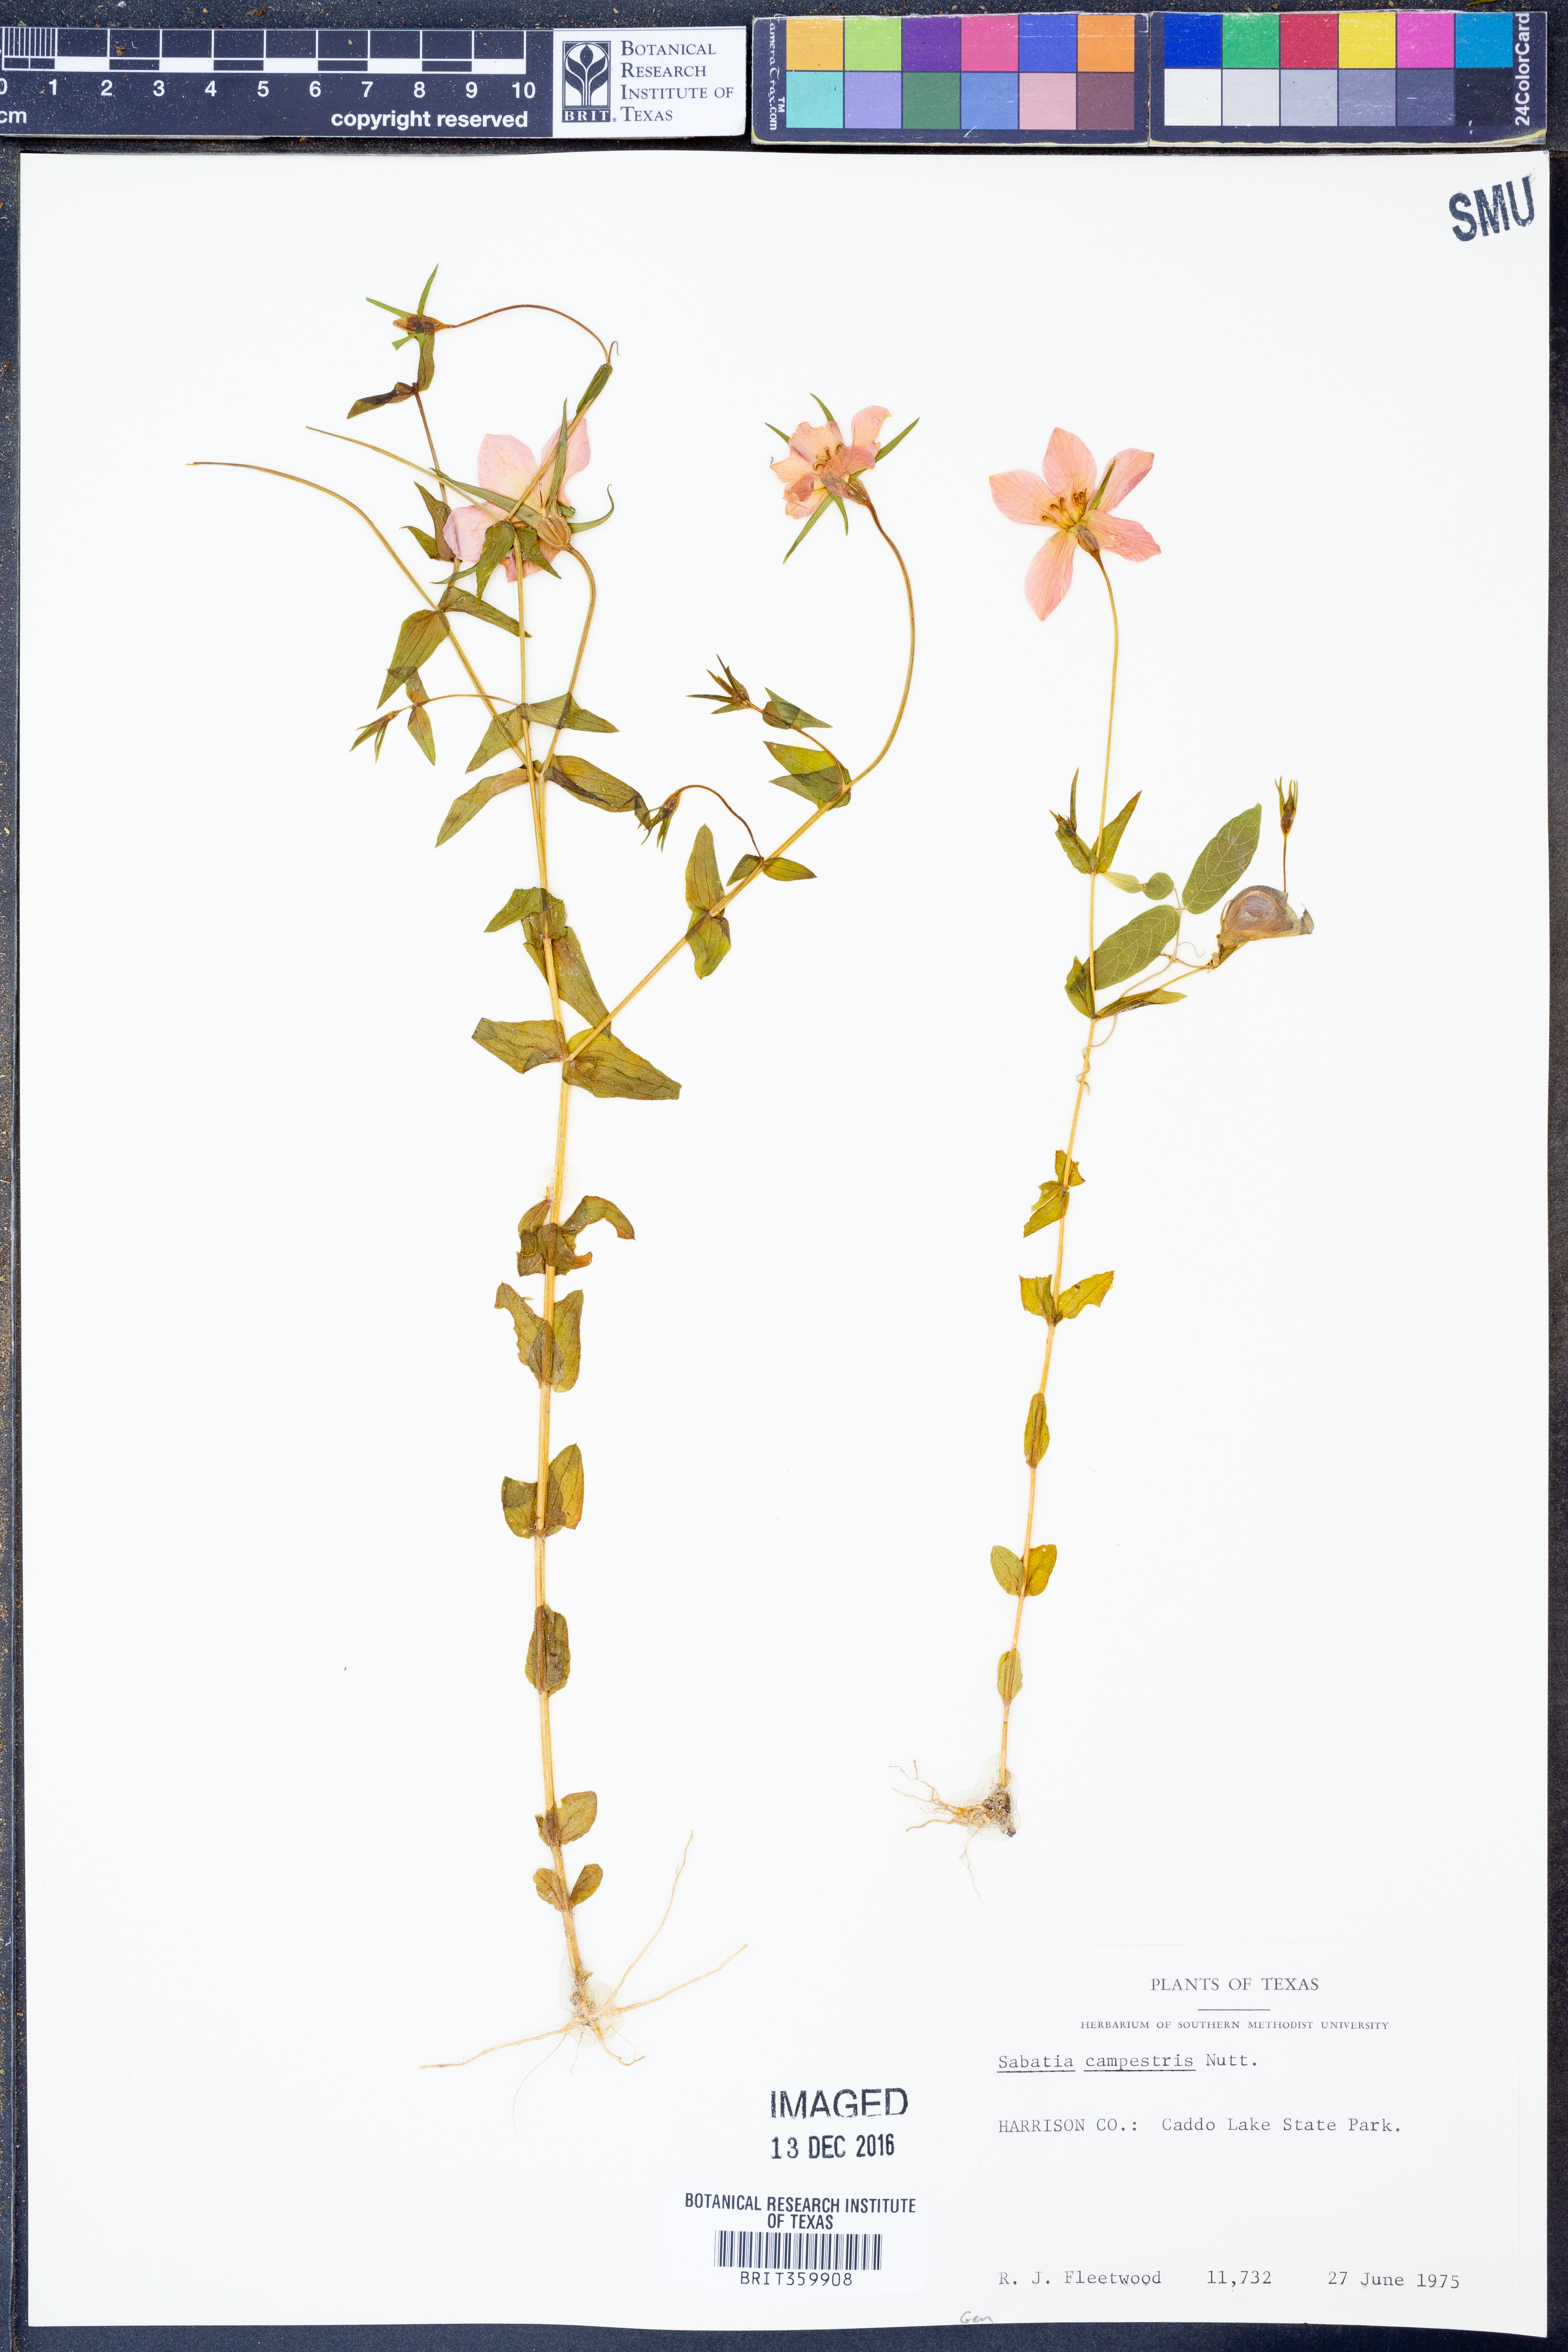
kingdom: Plantae
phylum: Tracheophyta
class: Magnoliopsida
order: Gentianales
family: Gentianaceae
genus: Sabatia
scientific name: Sabatia campestris
